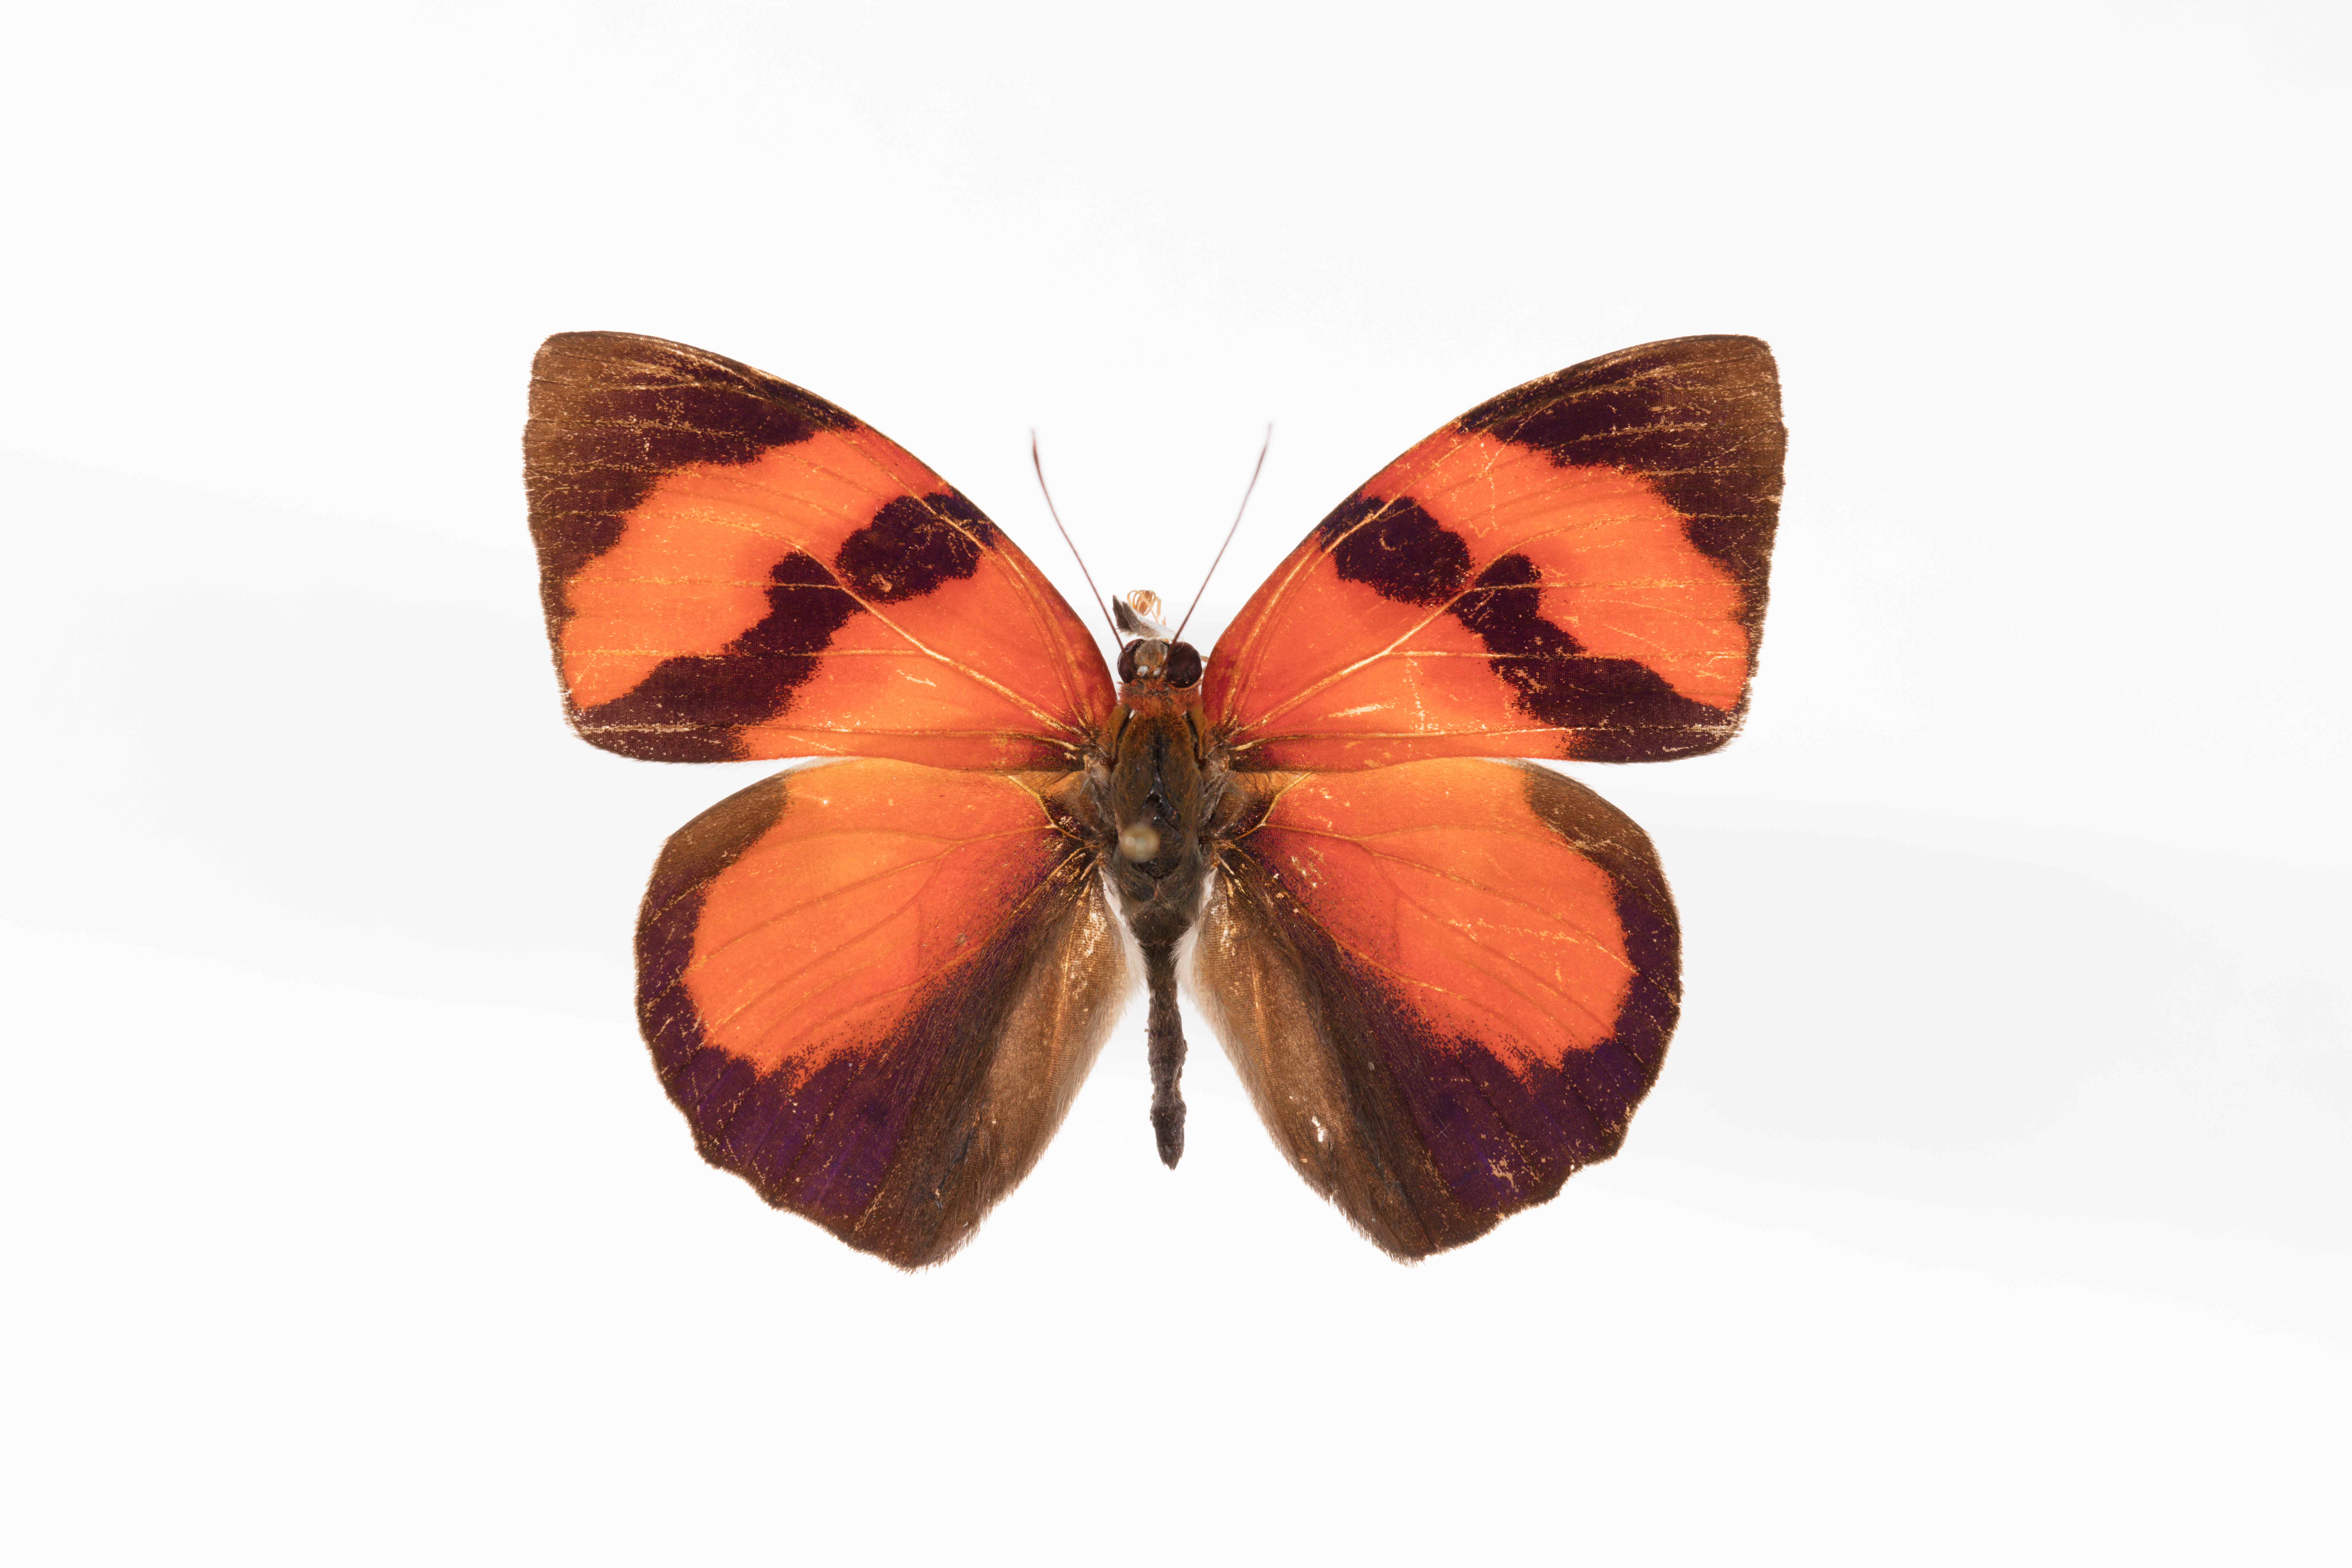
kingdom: Animalia
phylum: Arthropoda
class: Insecta
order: Lepidoptera
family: Nymphalidae
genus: Temenis
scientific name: Temenis pulchra
